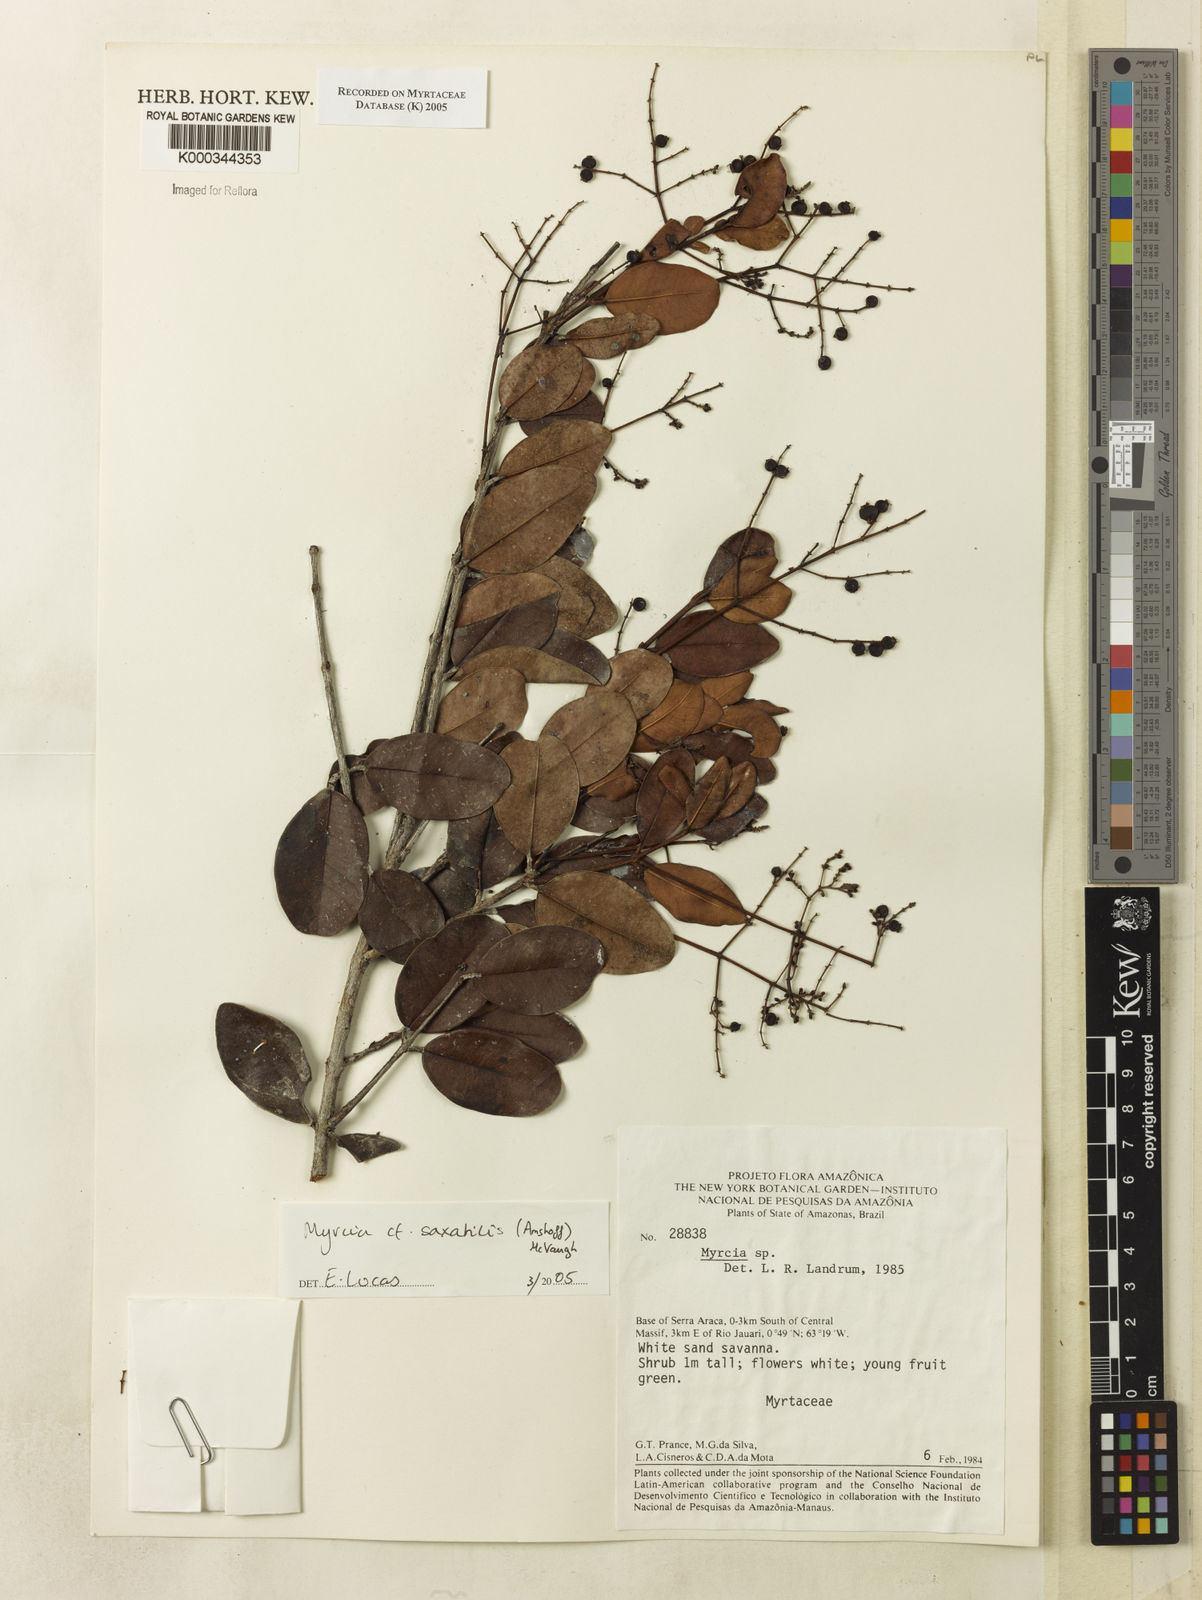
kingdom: Plantae
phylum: Tracheophyta
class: Magnoliopsida
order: Myrtales
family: Myrtaceae
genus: Myrcia
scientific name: Myrcia saxatilis
